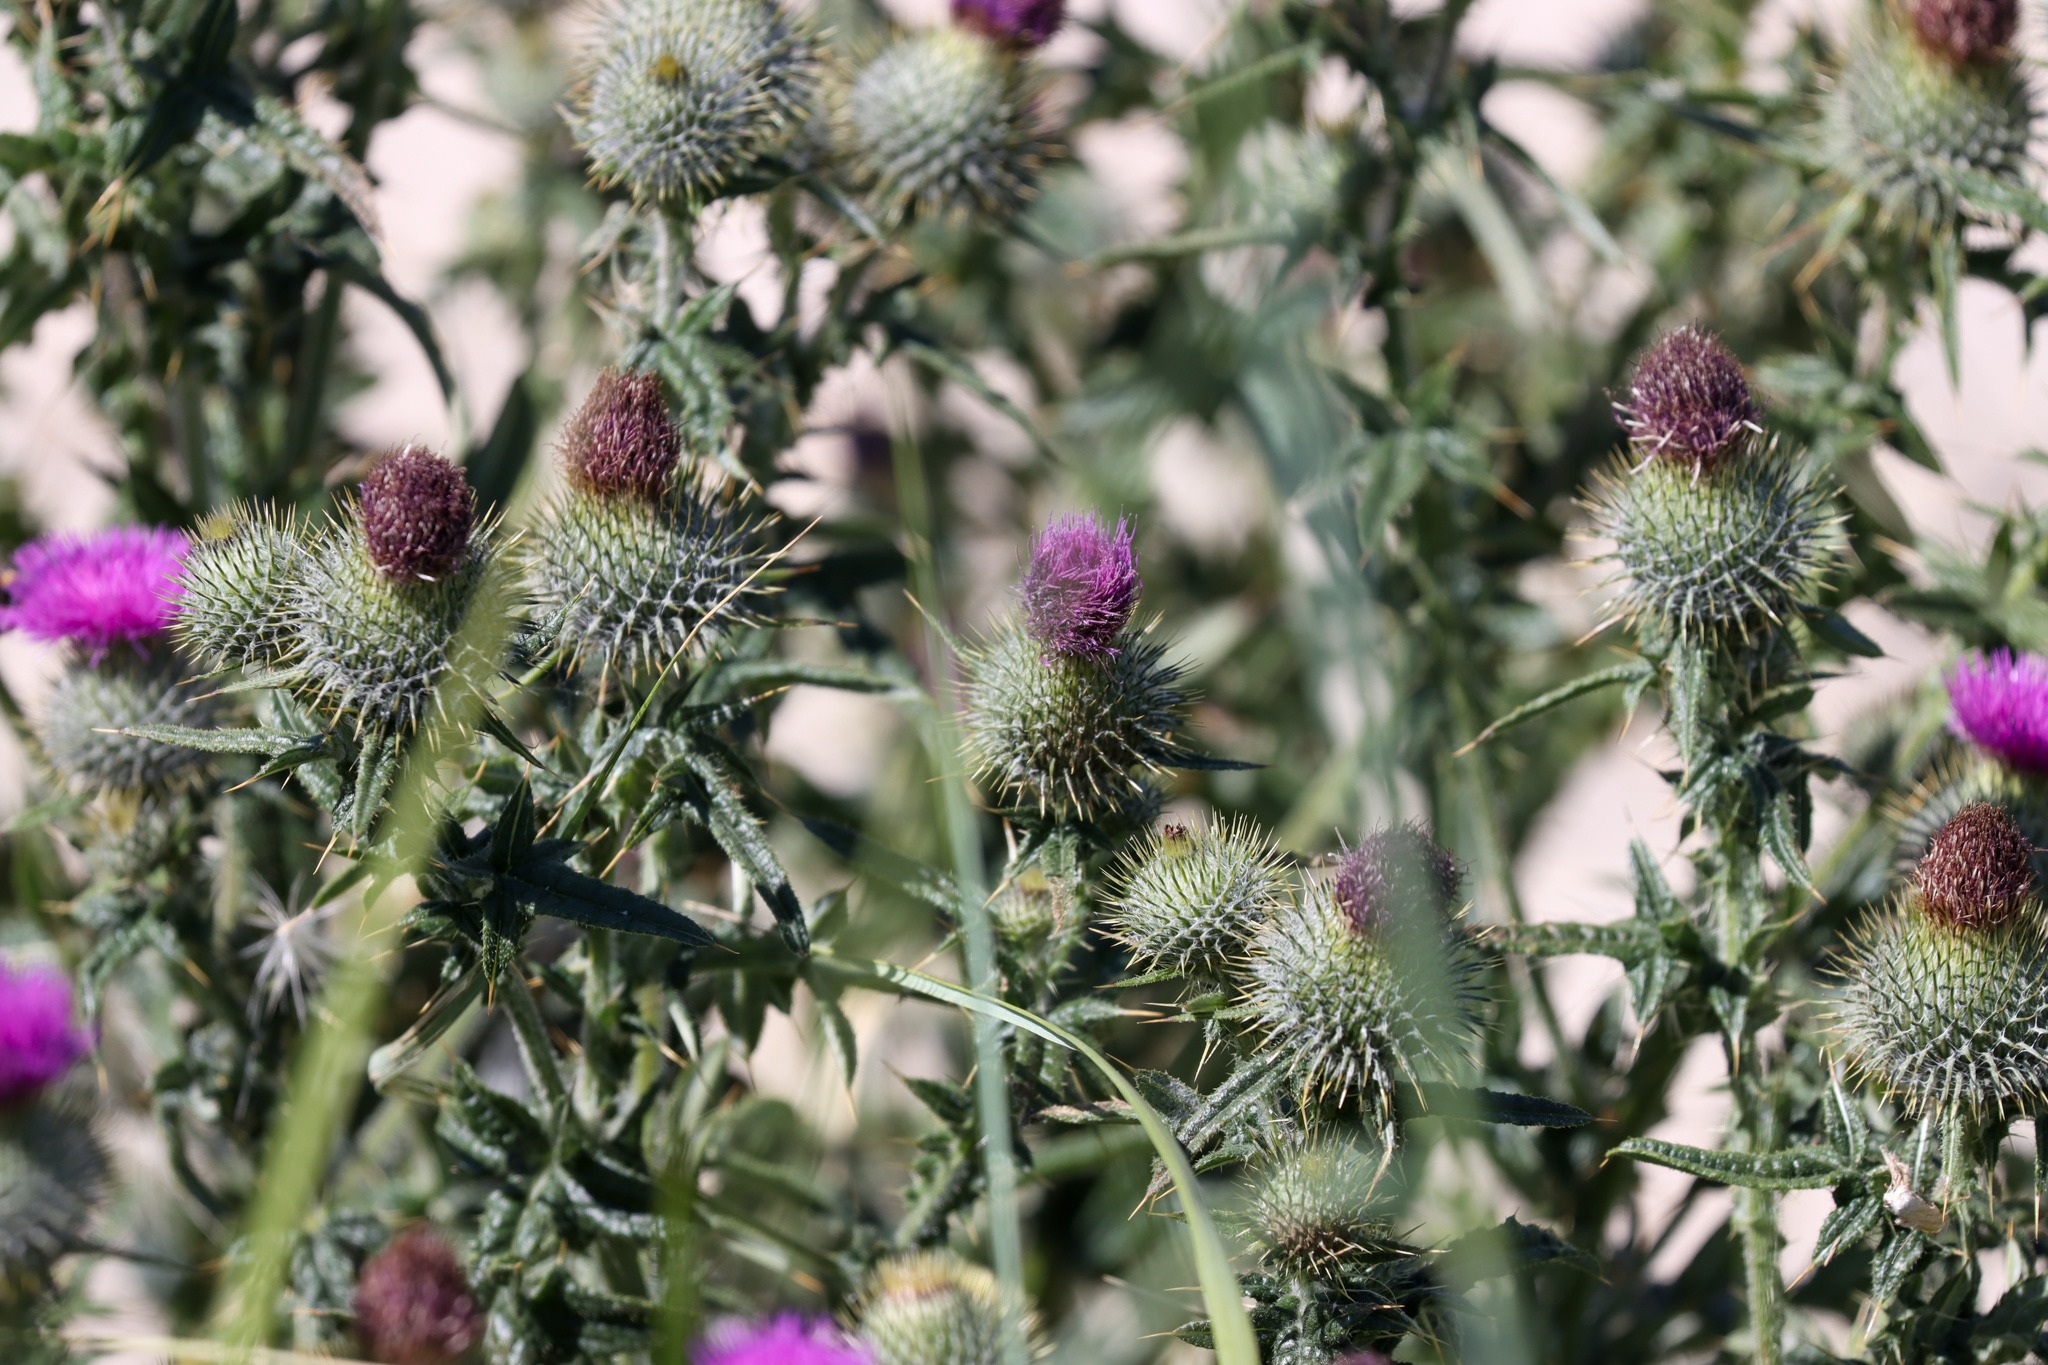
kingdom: Plantae
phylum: Tracheophyta
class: Magnoliopsida
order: Asterales
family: Asteraceae
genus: Cirsium
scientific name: Cirsium vulgare
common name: Horse-tidsel
